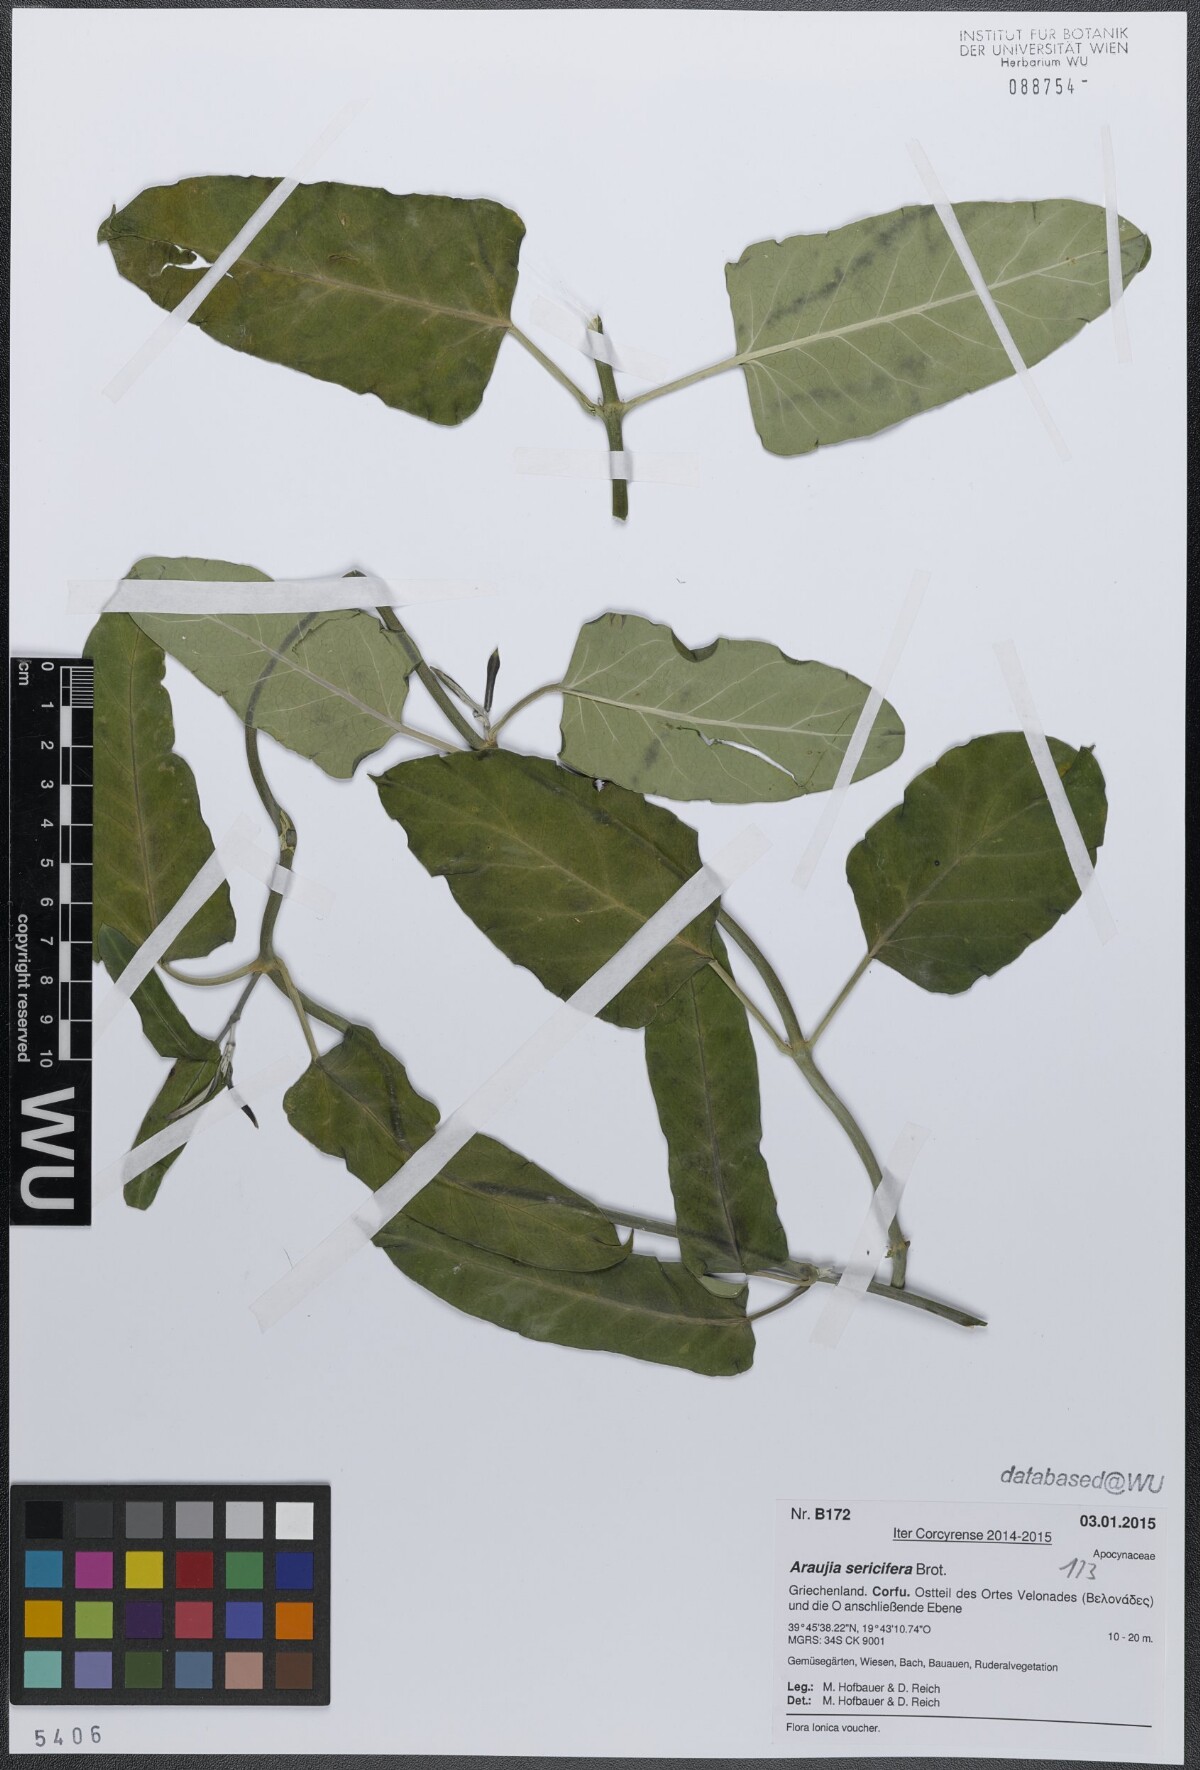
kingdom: Plantae
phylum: Tracheophyta
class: Magnoliopsida
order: Gentianales
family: Apocynaceae
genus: Araujia
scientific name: Araujia sericifera
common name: White bladderflower
